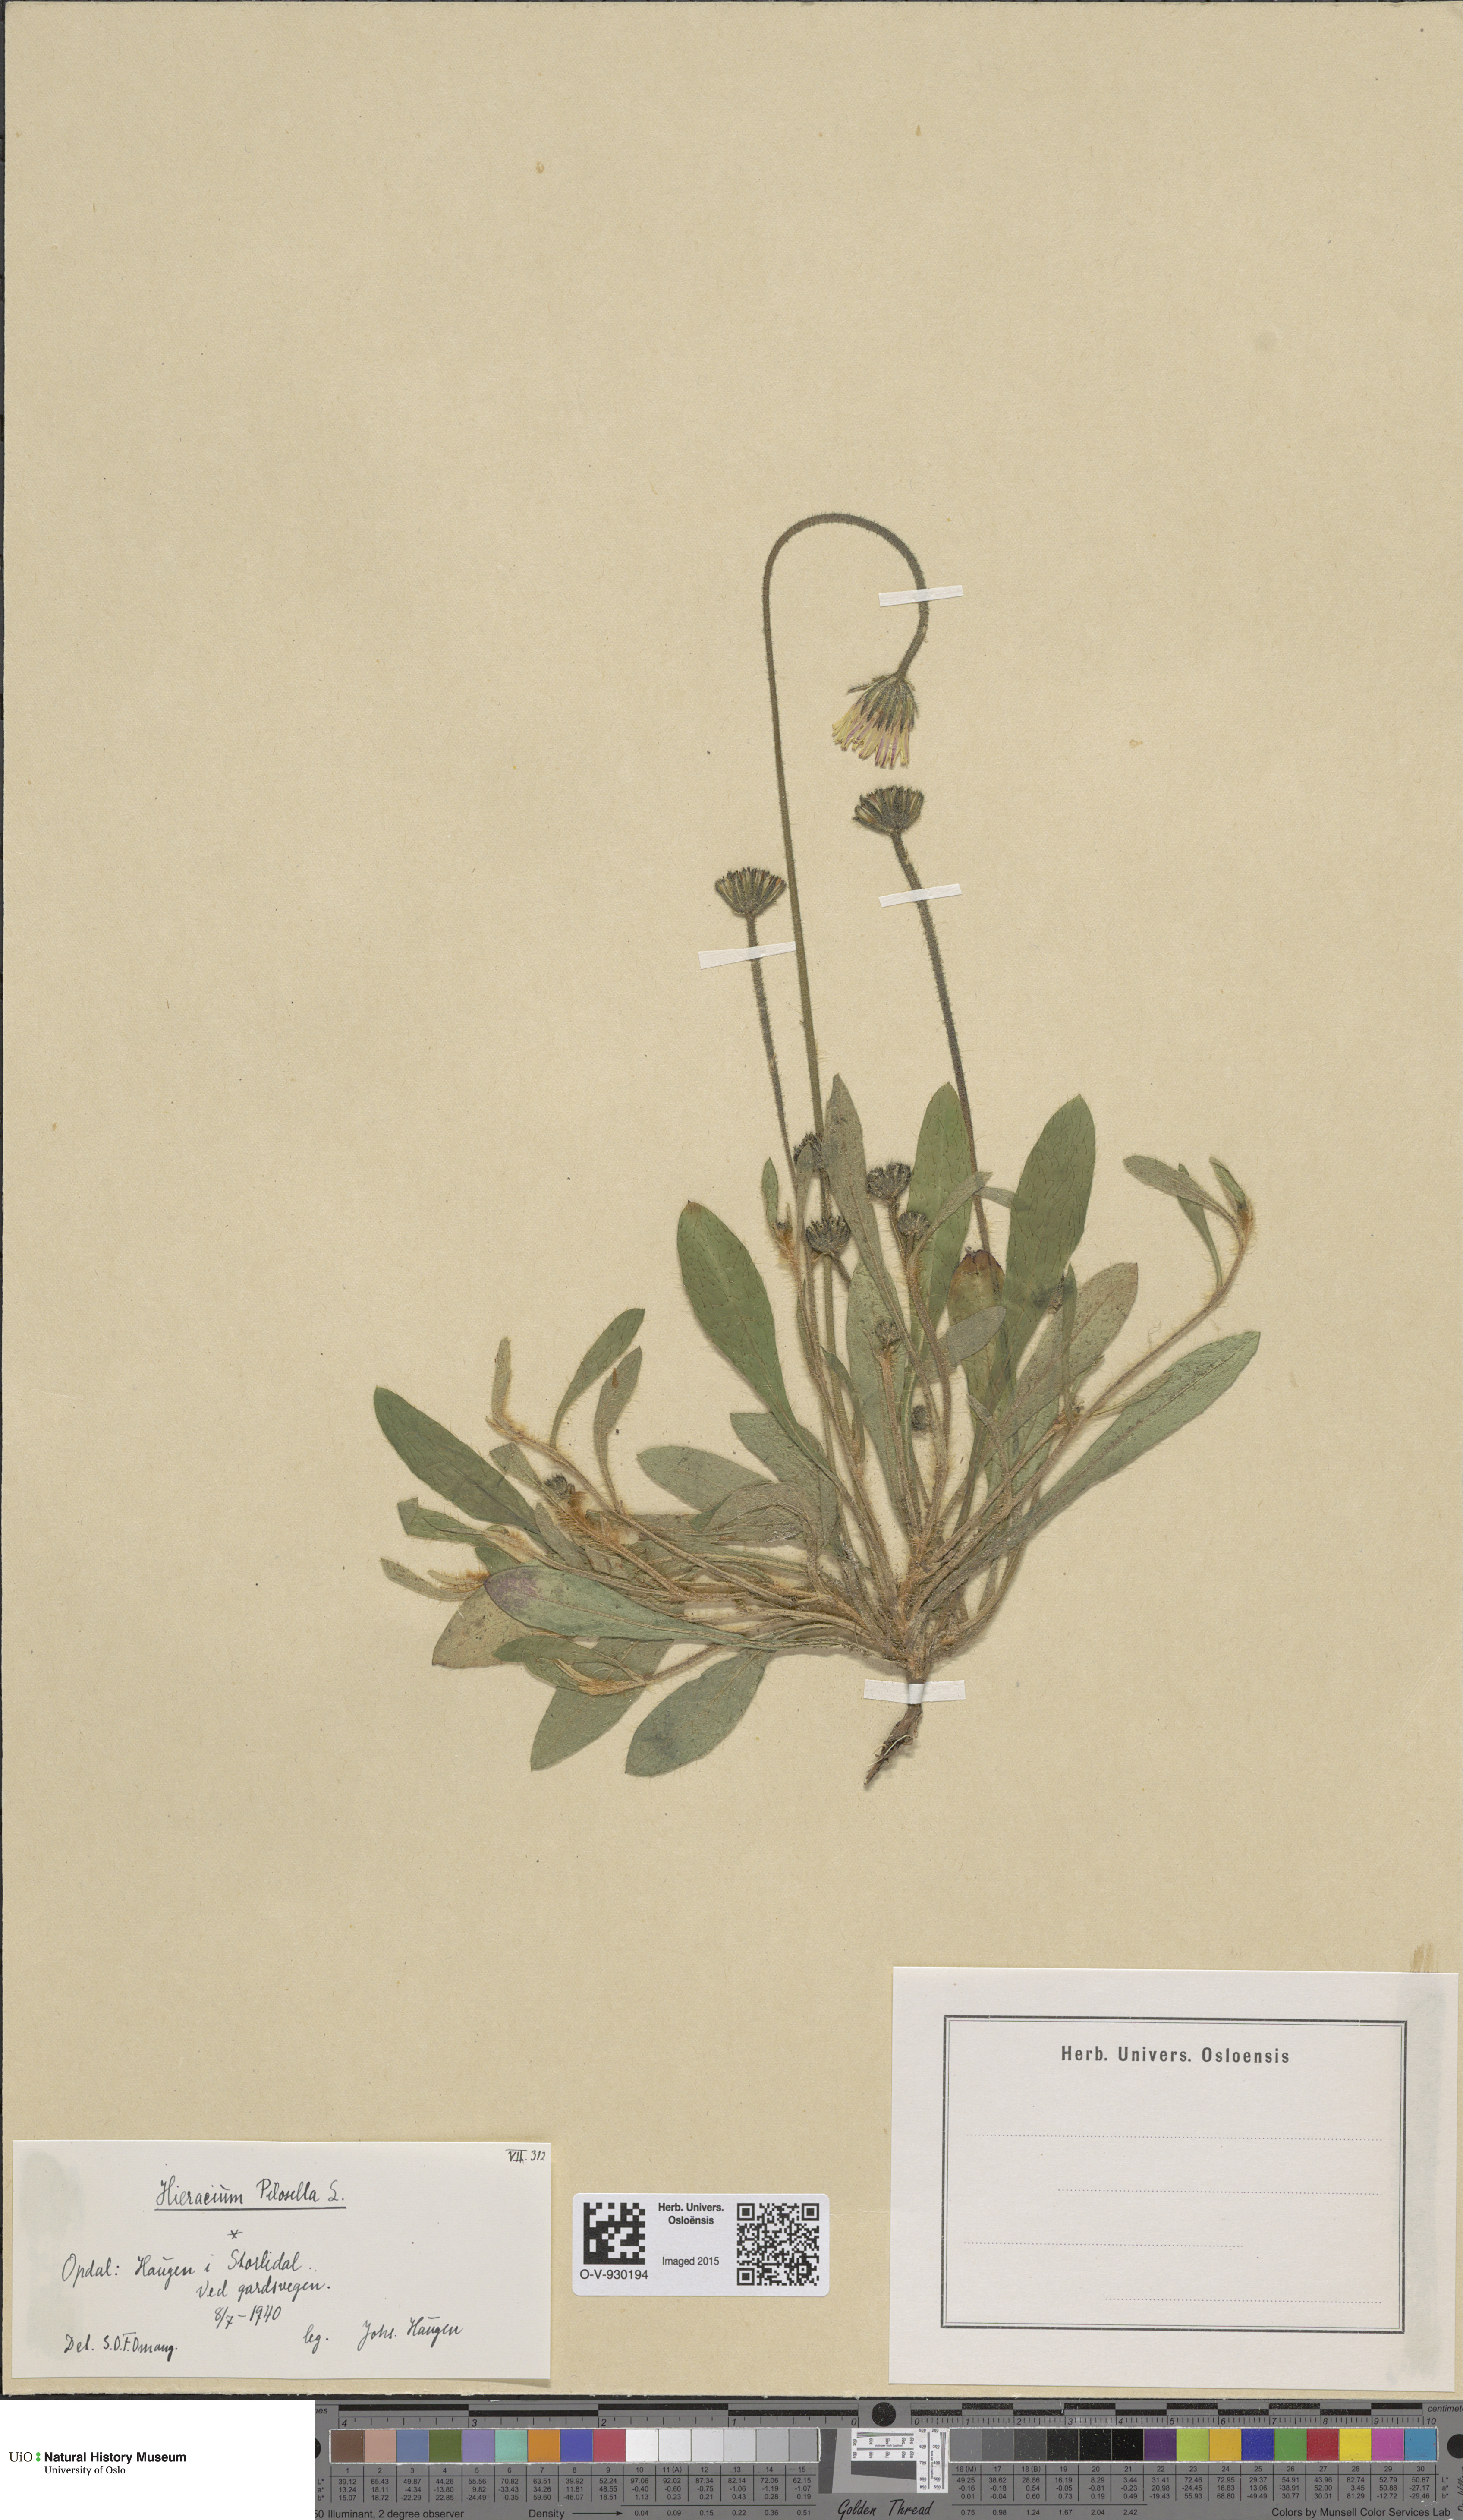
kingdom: Plantae
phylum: Tracheophyta
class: Magnoliopsida
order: Asterales
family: Asteraceae
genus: Pilosella
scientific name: Pilosella officinarum
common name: Mouse-ear hawkweed
